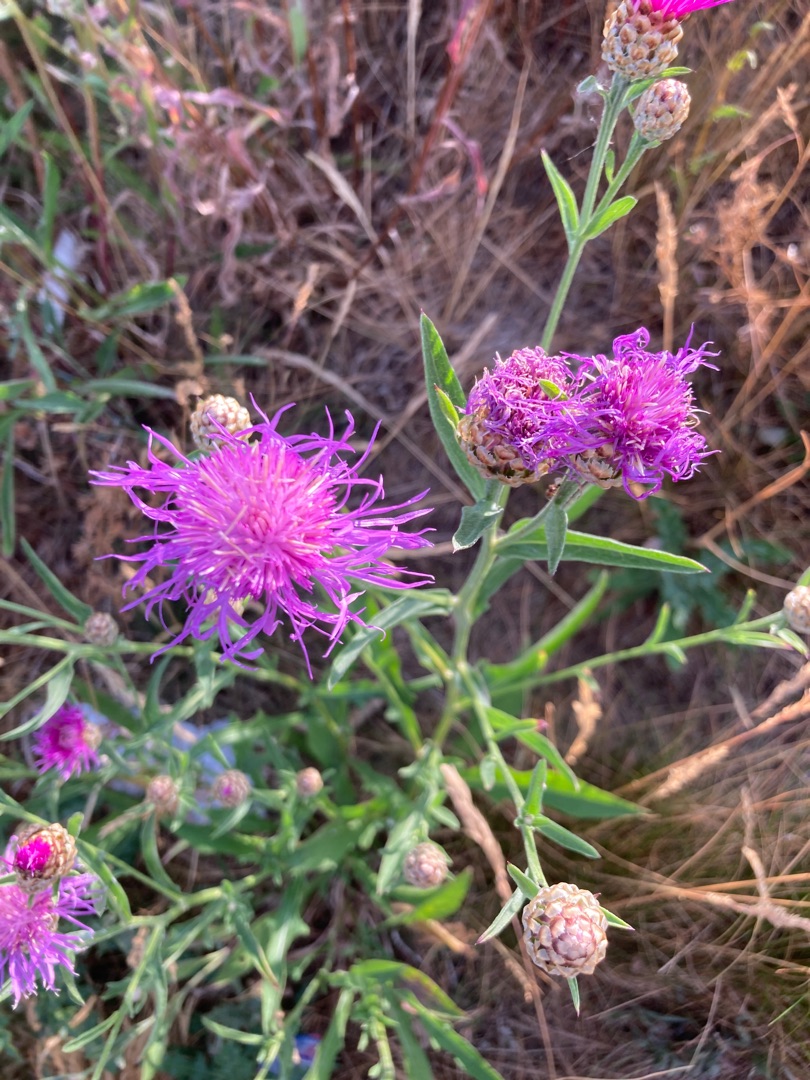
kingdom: Plantae
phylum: Tracheophyta
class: Magnoliopsida
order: Asterales
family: Asteraceae
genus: Centaurea
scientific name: Centaurea jacea
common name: Almindelig knopurt
